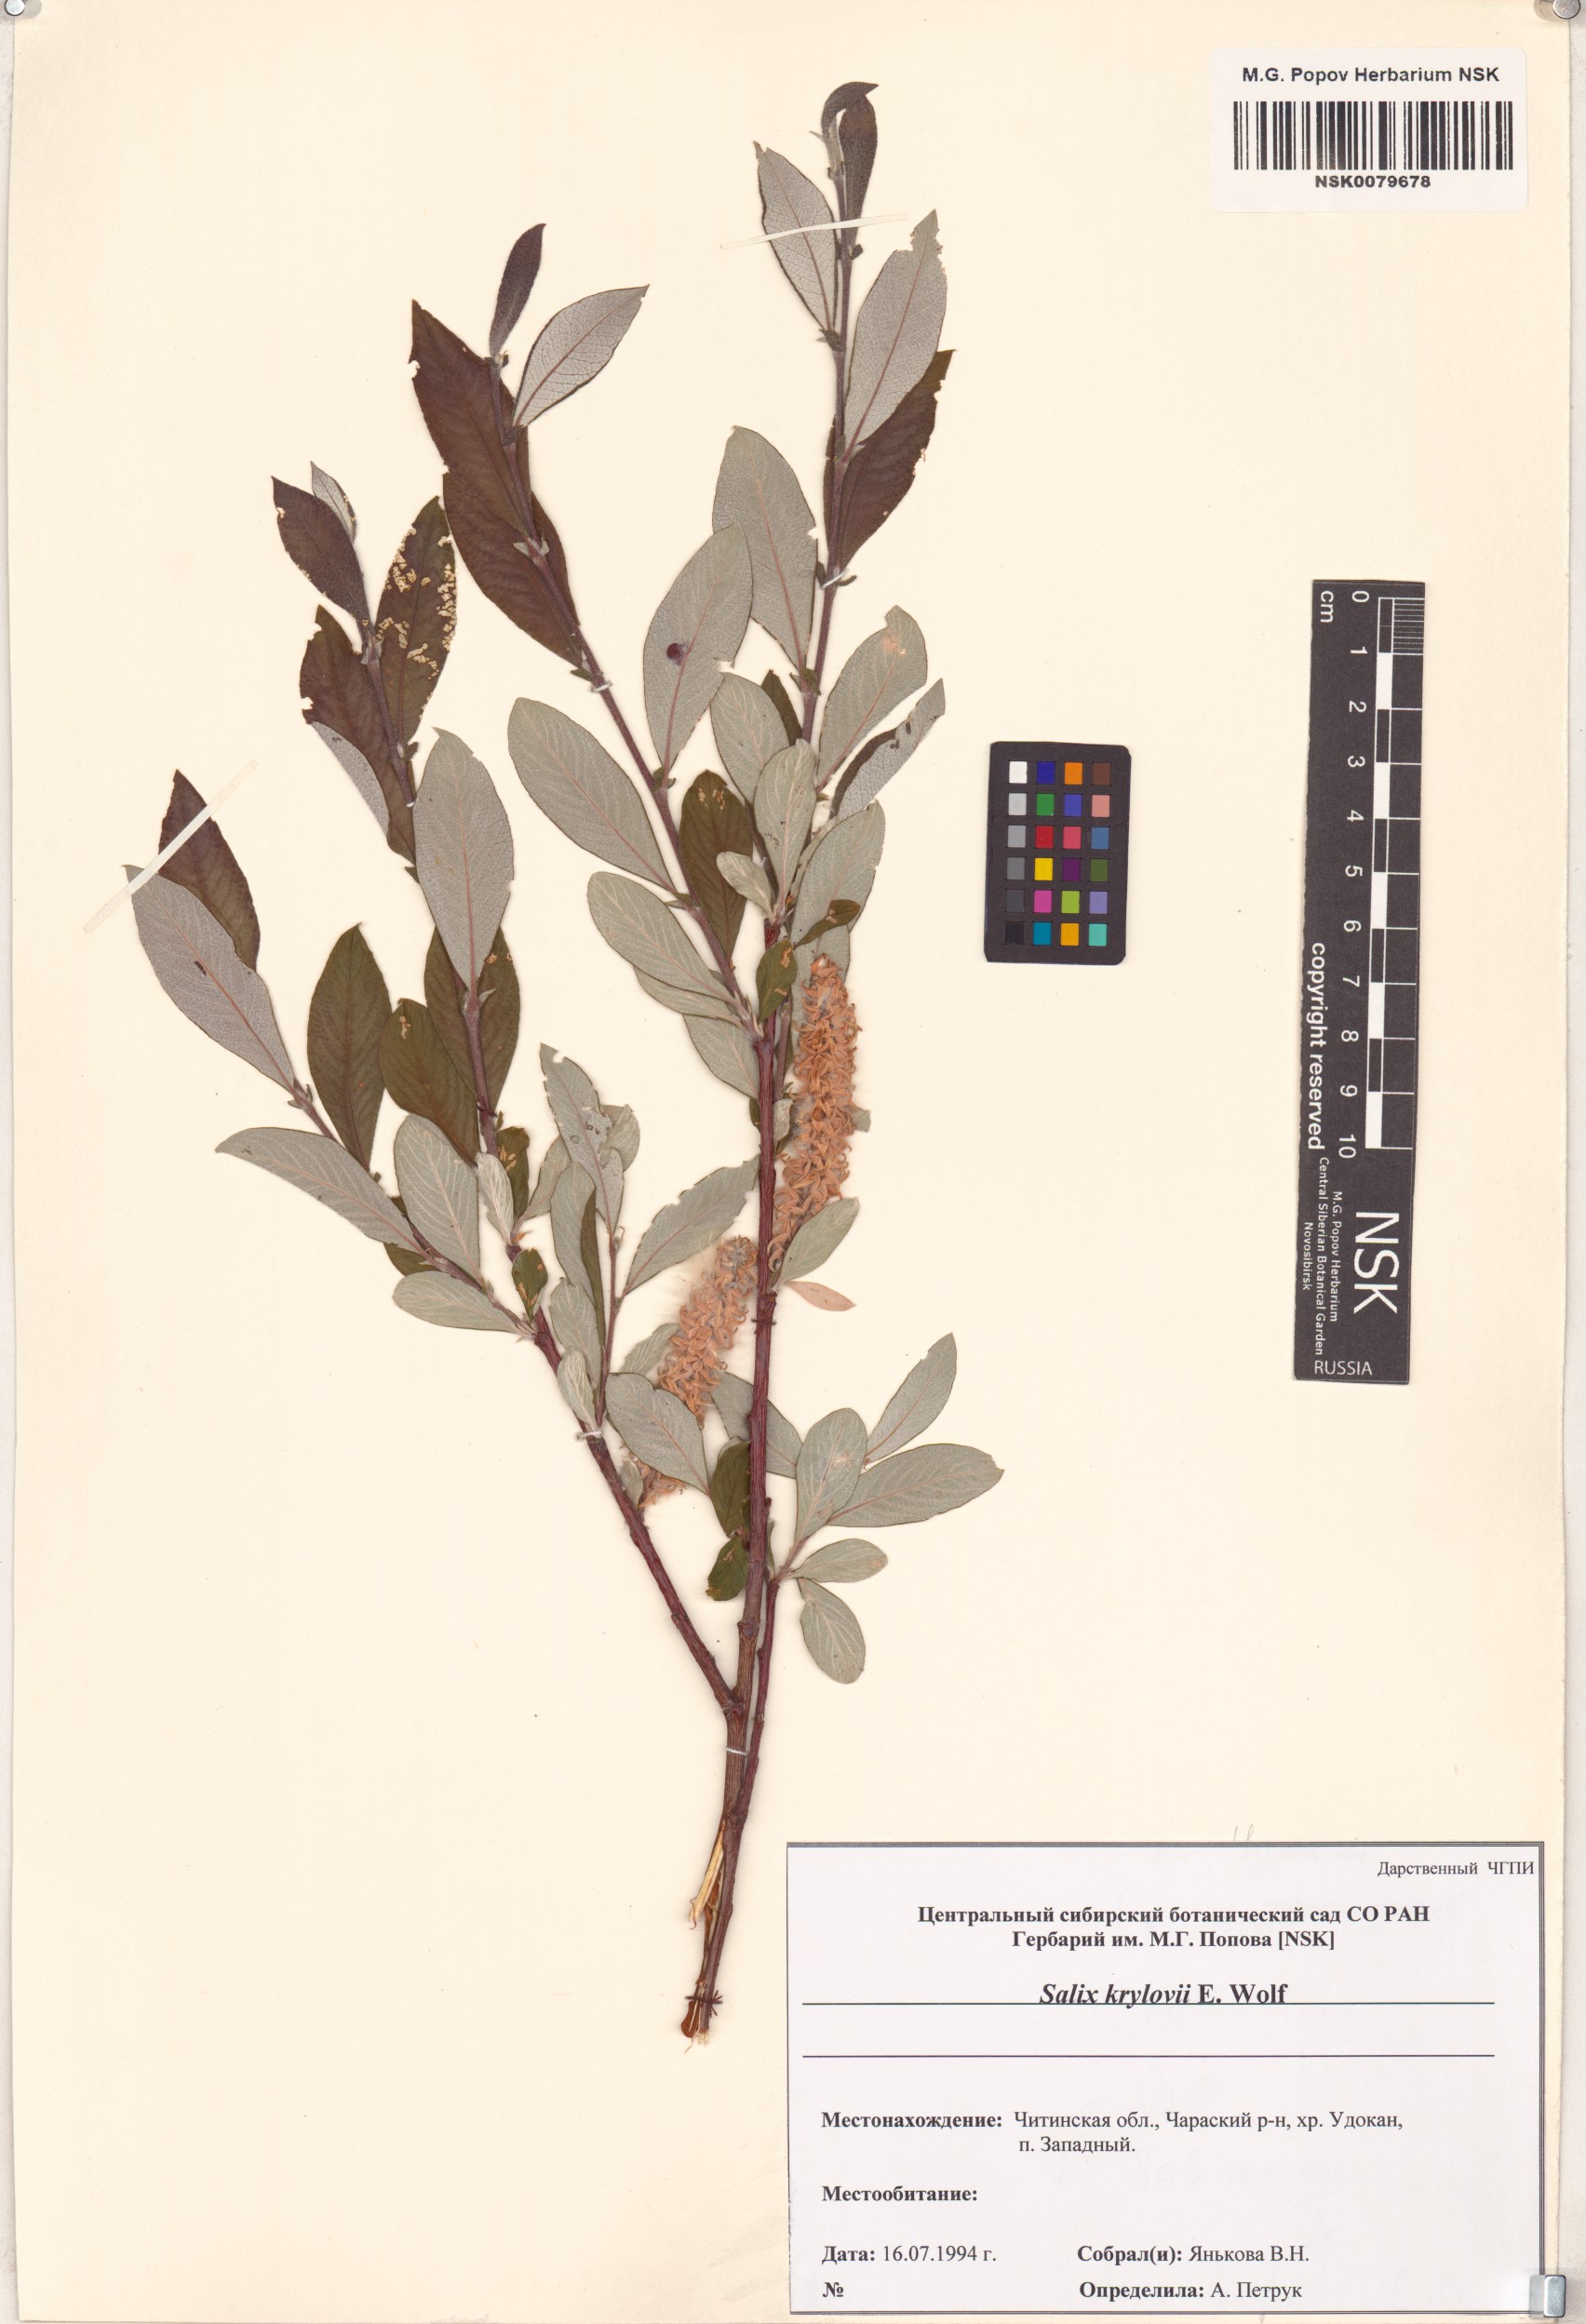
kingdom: Plantae
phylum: Tracheophyta
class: Magnoliopsida
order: Malpighiales
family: Salicaceae
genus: Salix
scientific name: Salix krylovii
